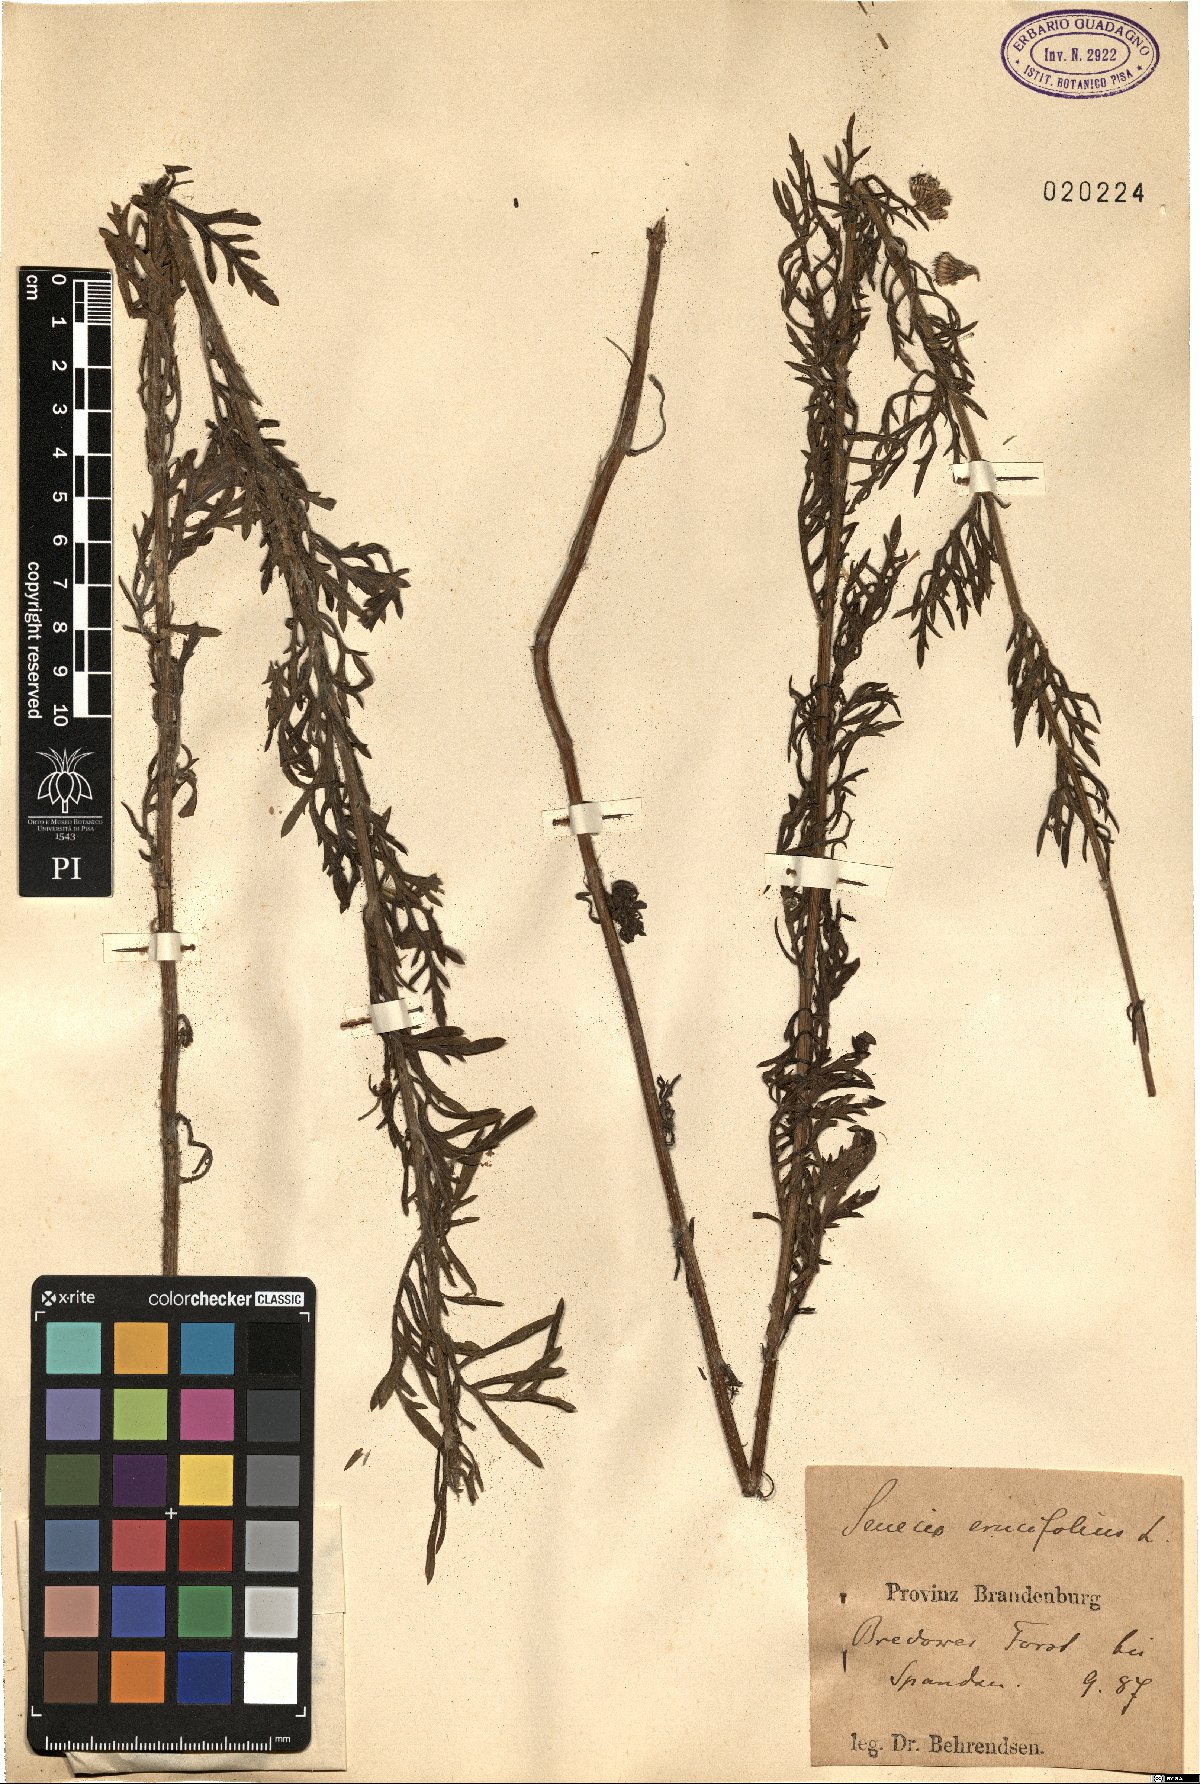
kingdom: Plantae
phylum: Tracheophyta
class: Magnoliopsida
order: Asterales
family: Asteraceae
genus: Jacobaea
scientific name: Jacobaea erucifolia
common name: Hoary ragwort
